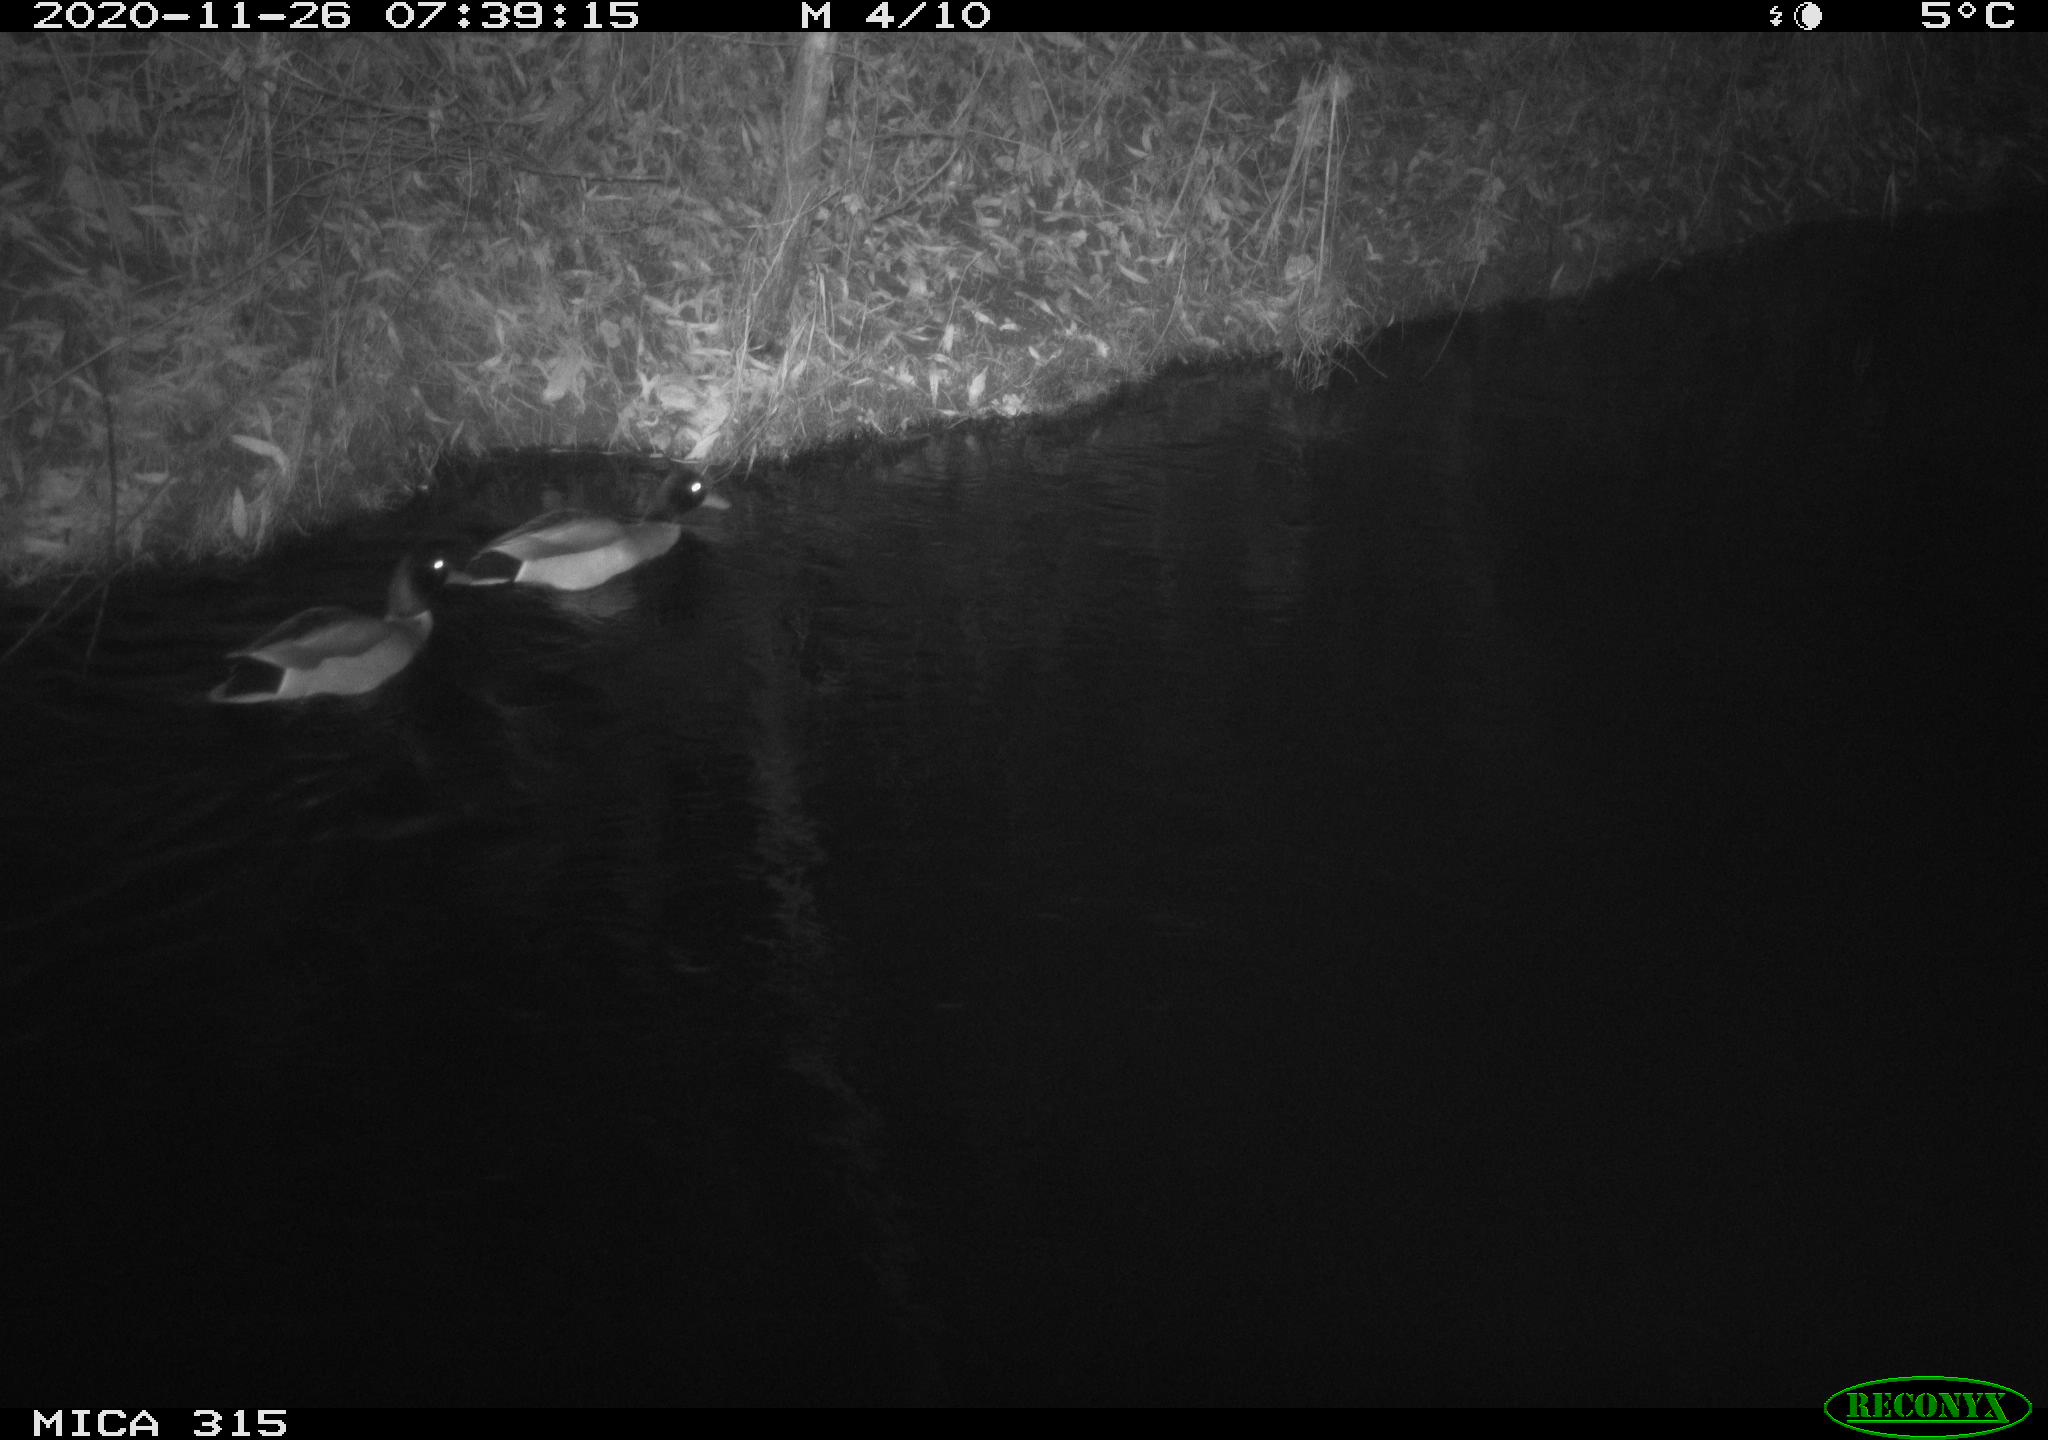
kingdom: Animalia
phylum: Chordata
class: Aves
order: Anseriformes
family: Anatidae
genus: Anas
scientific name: Anas platyrhynchos
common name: Mallard
